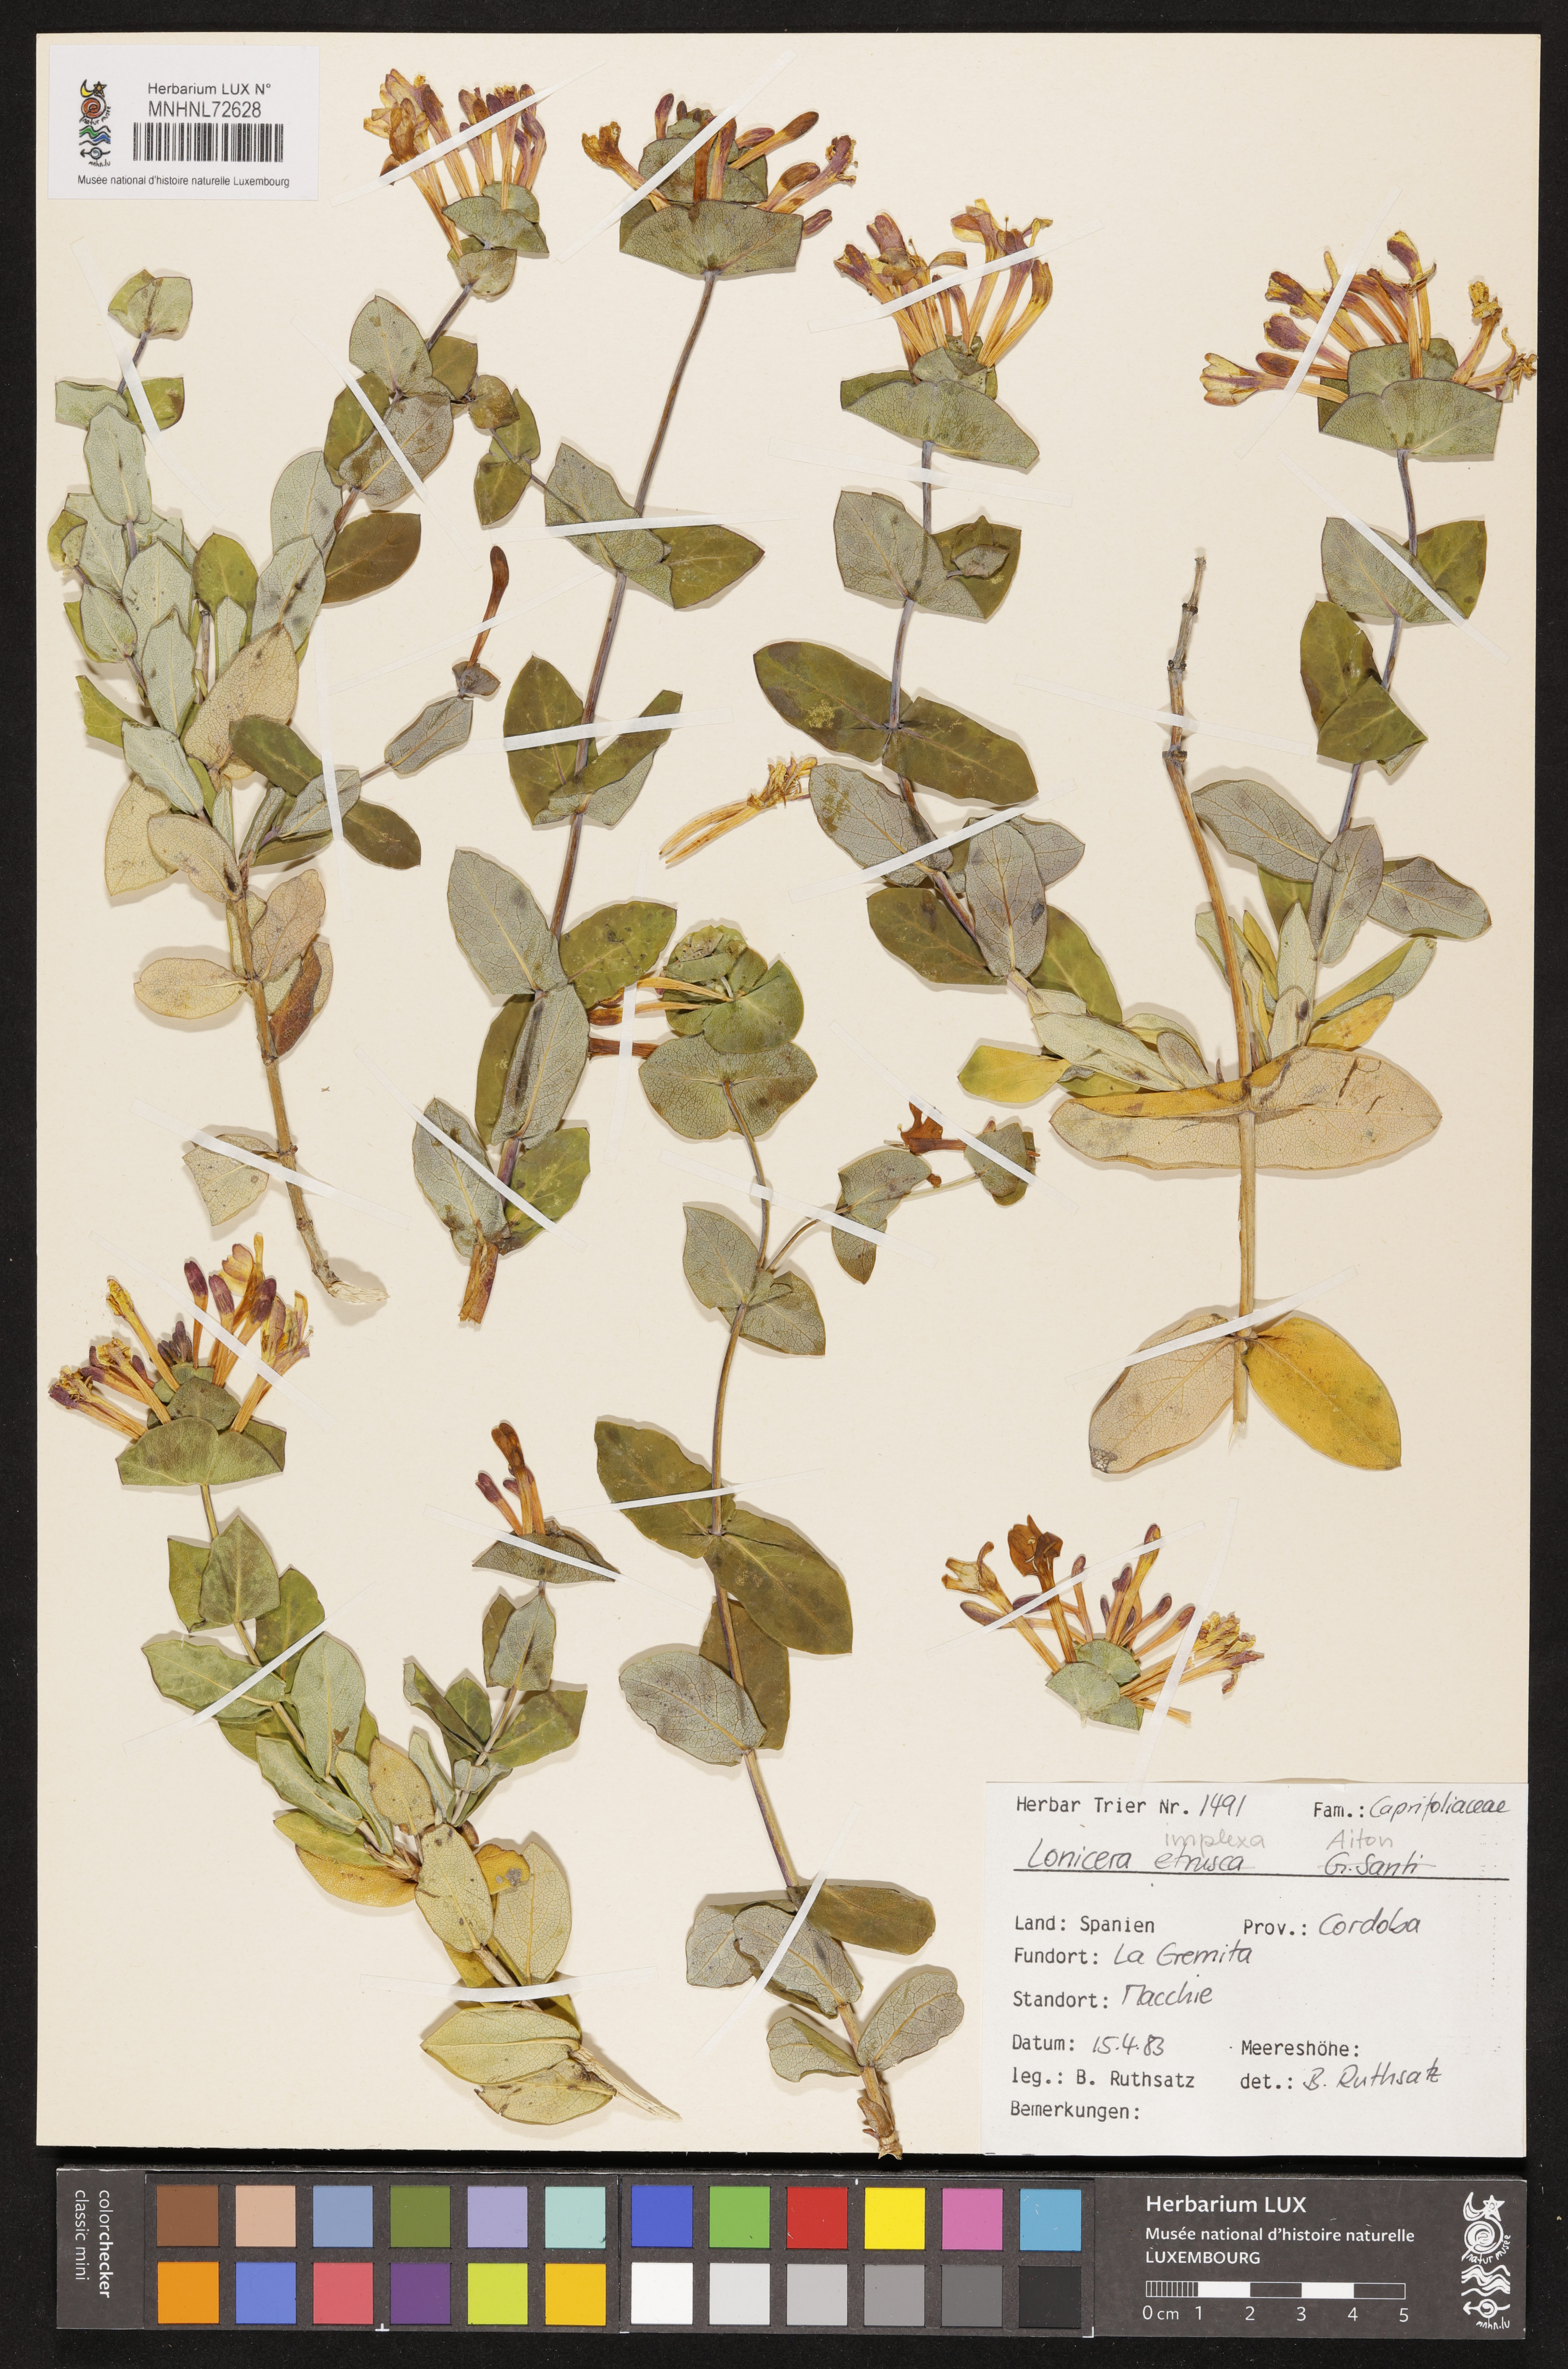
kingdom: Plantae
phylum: Tracheophyta
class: Magnoliopsida
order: Dipsacales
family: Caprifoliaceae
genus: Lonicera
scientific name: Lonicera implexa
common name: Minorca honeysuckle
